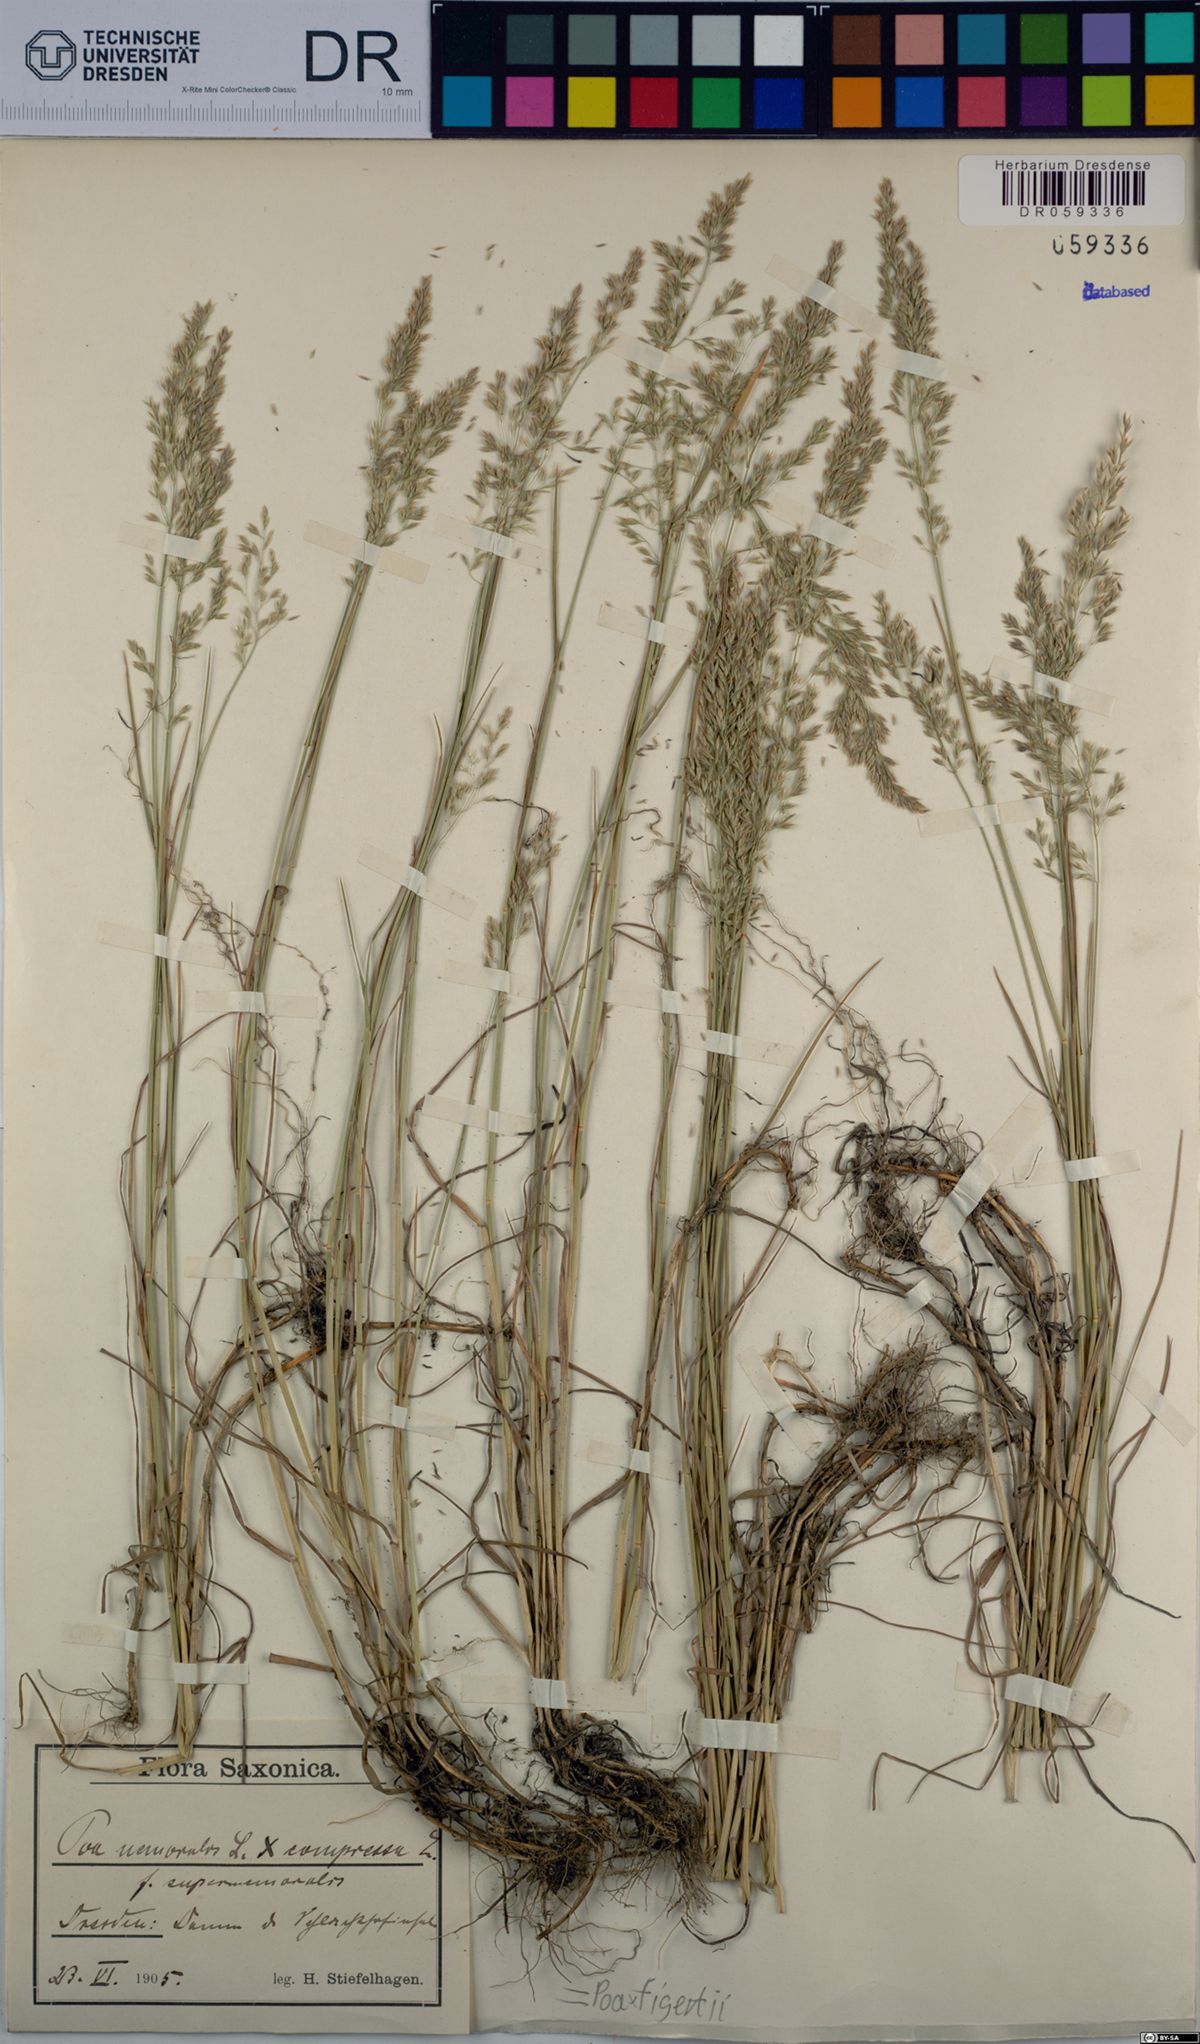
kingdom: Plantae
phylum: Tracheophyta
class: Liliopsida
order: Poales
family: Poaceae
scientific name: Poaceae
